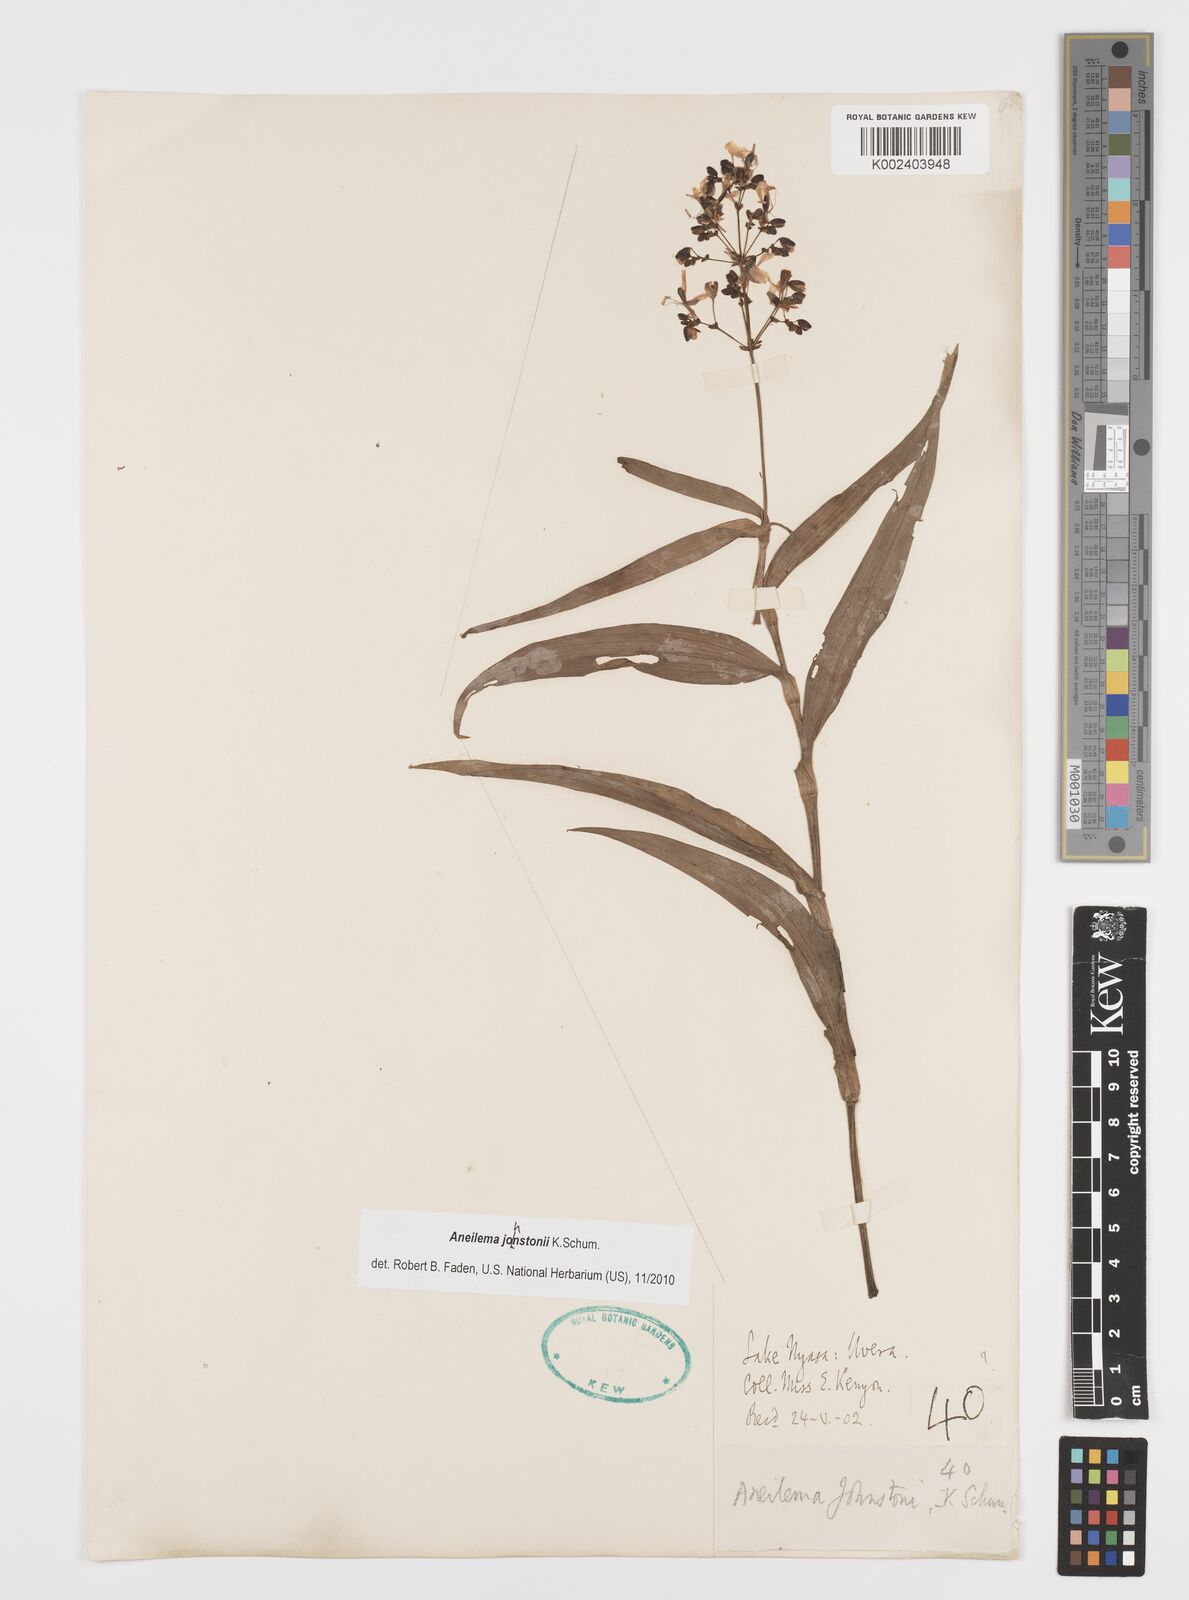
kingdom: Plantae
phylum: Tracheophyta
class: Liliopsida
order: Commelinales
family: Commelinaceae
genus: Aneilema
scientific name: Aneilema johnstonii
